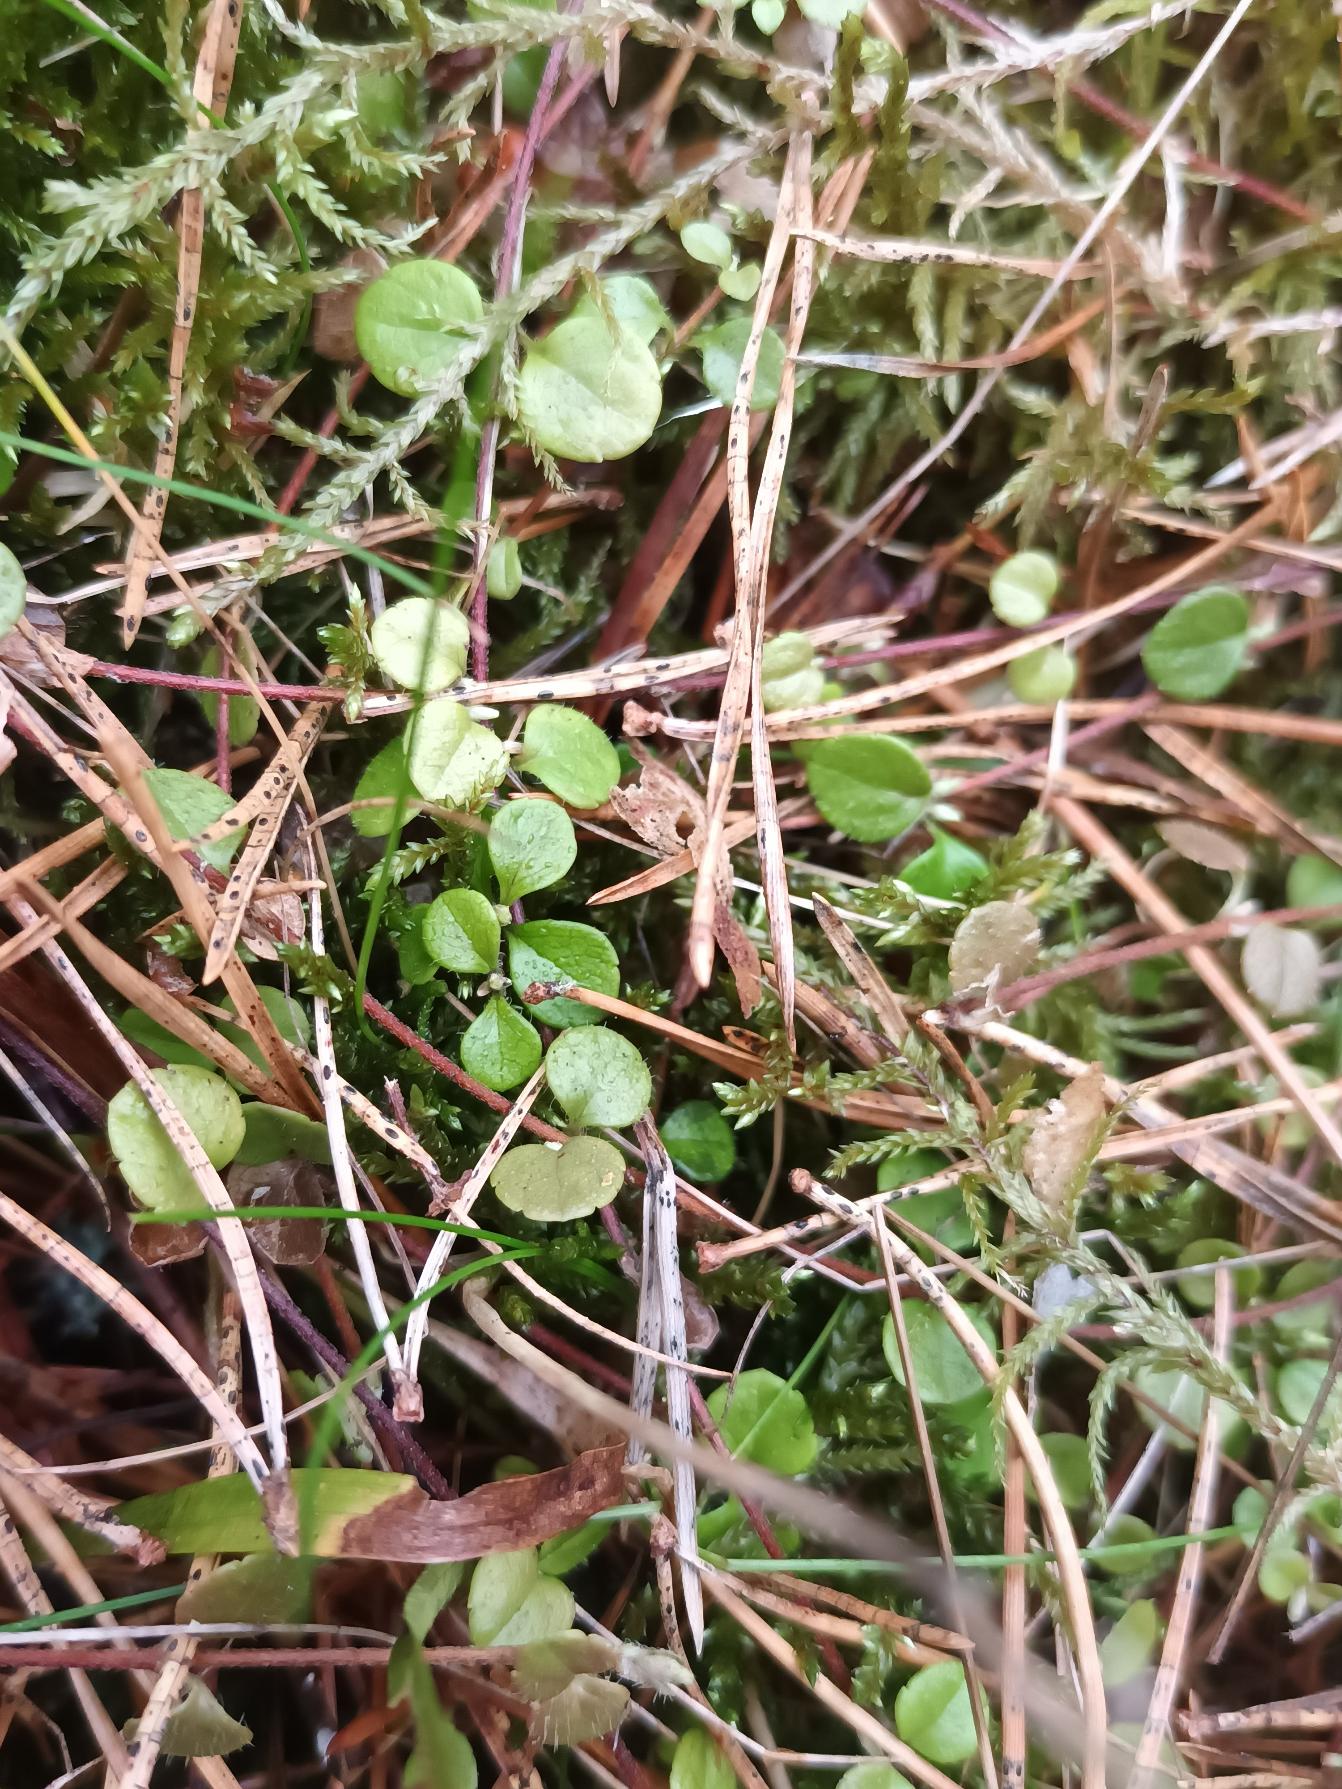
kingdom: Plantae
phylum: Tracheophyta
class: Magnoliopsida
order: Dipsacales
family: Caprifoliaceae
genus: Linnaea
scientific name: Linnaea borealis
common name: Linnæa
